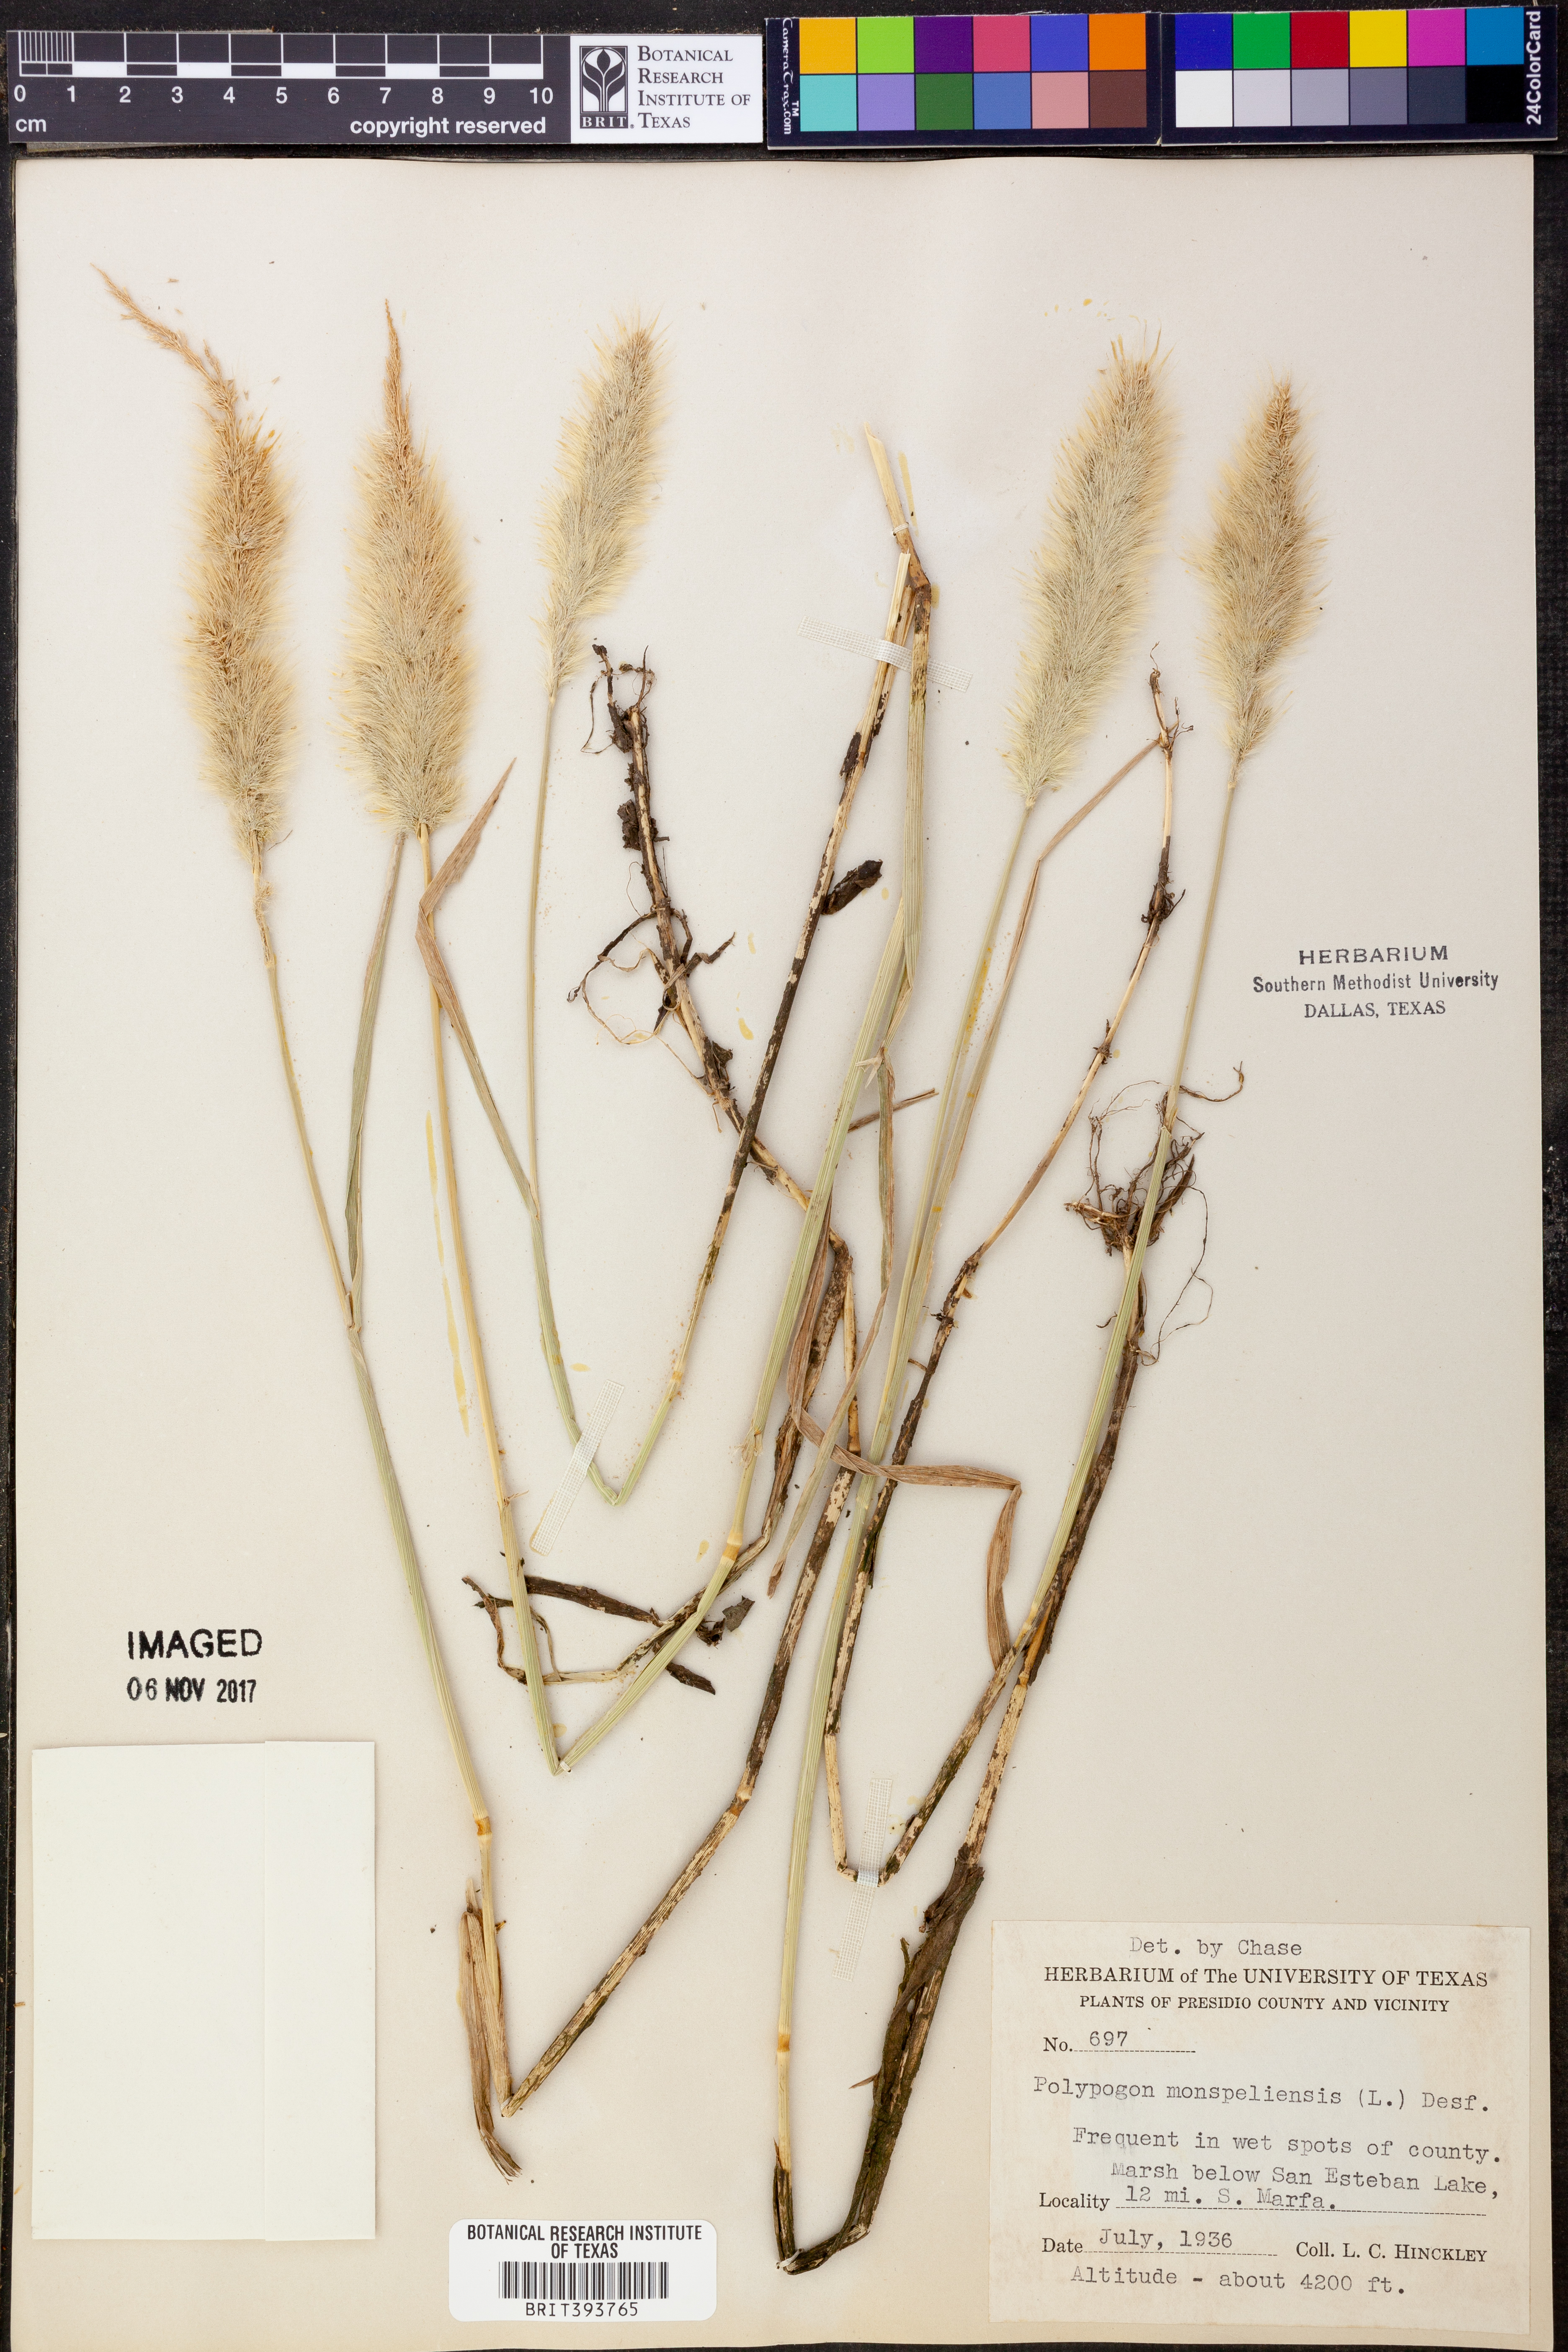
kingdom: Plantae
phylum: Tracheophyta
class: Liliopsida
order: Poales
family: Poaceae
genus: Polypogon
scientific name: Polypogon monspeliensis
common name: Annual rabbitsfoot grass
